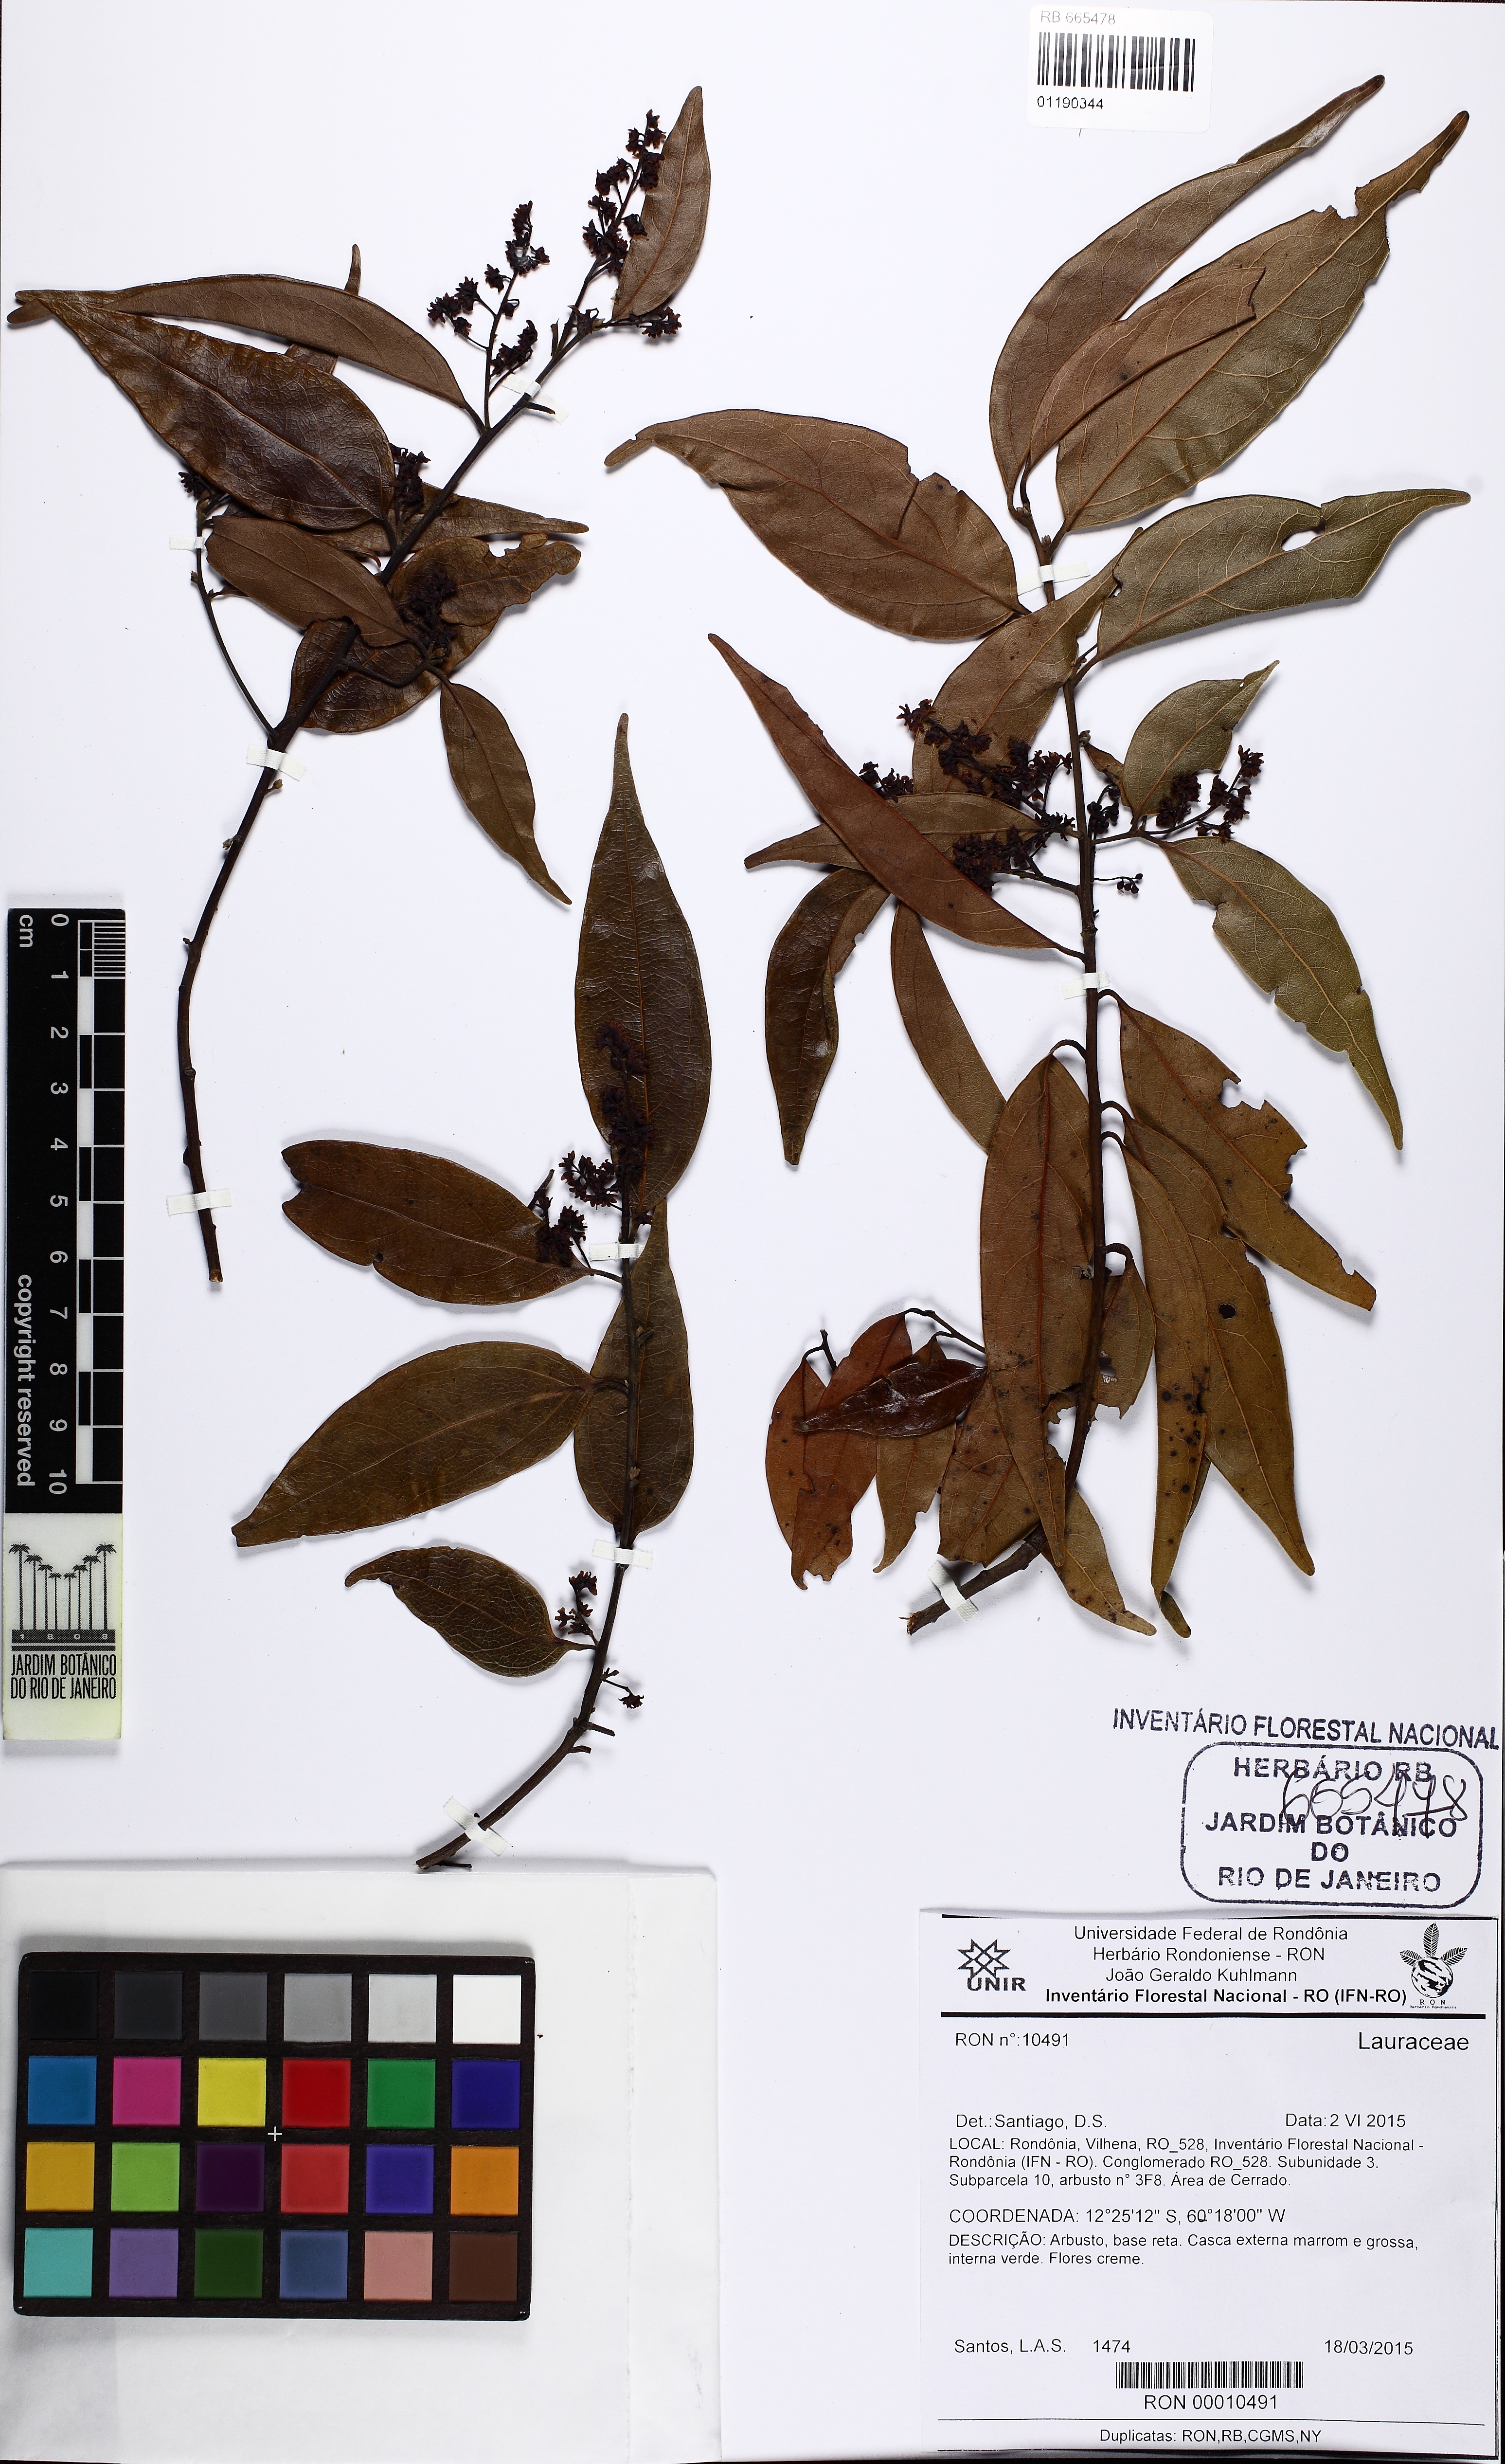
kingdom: Plantae
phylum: Tracheophyta
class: Magnoliopsida
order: Laurales
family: Lauraceae
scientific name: Lauraceae
